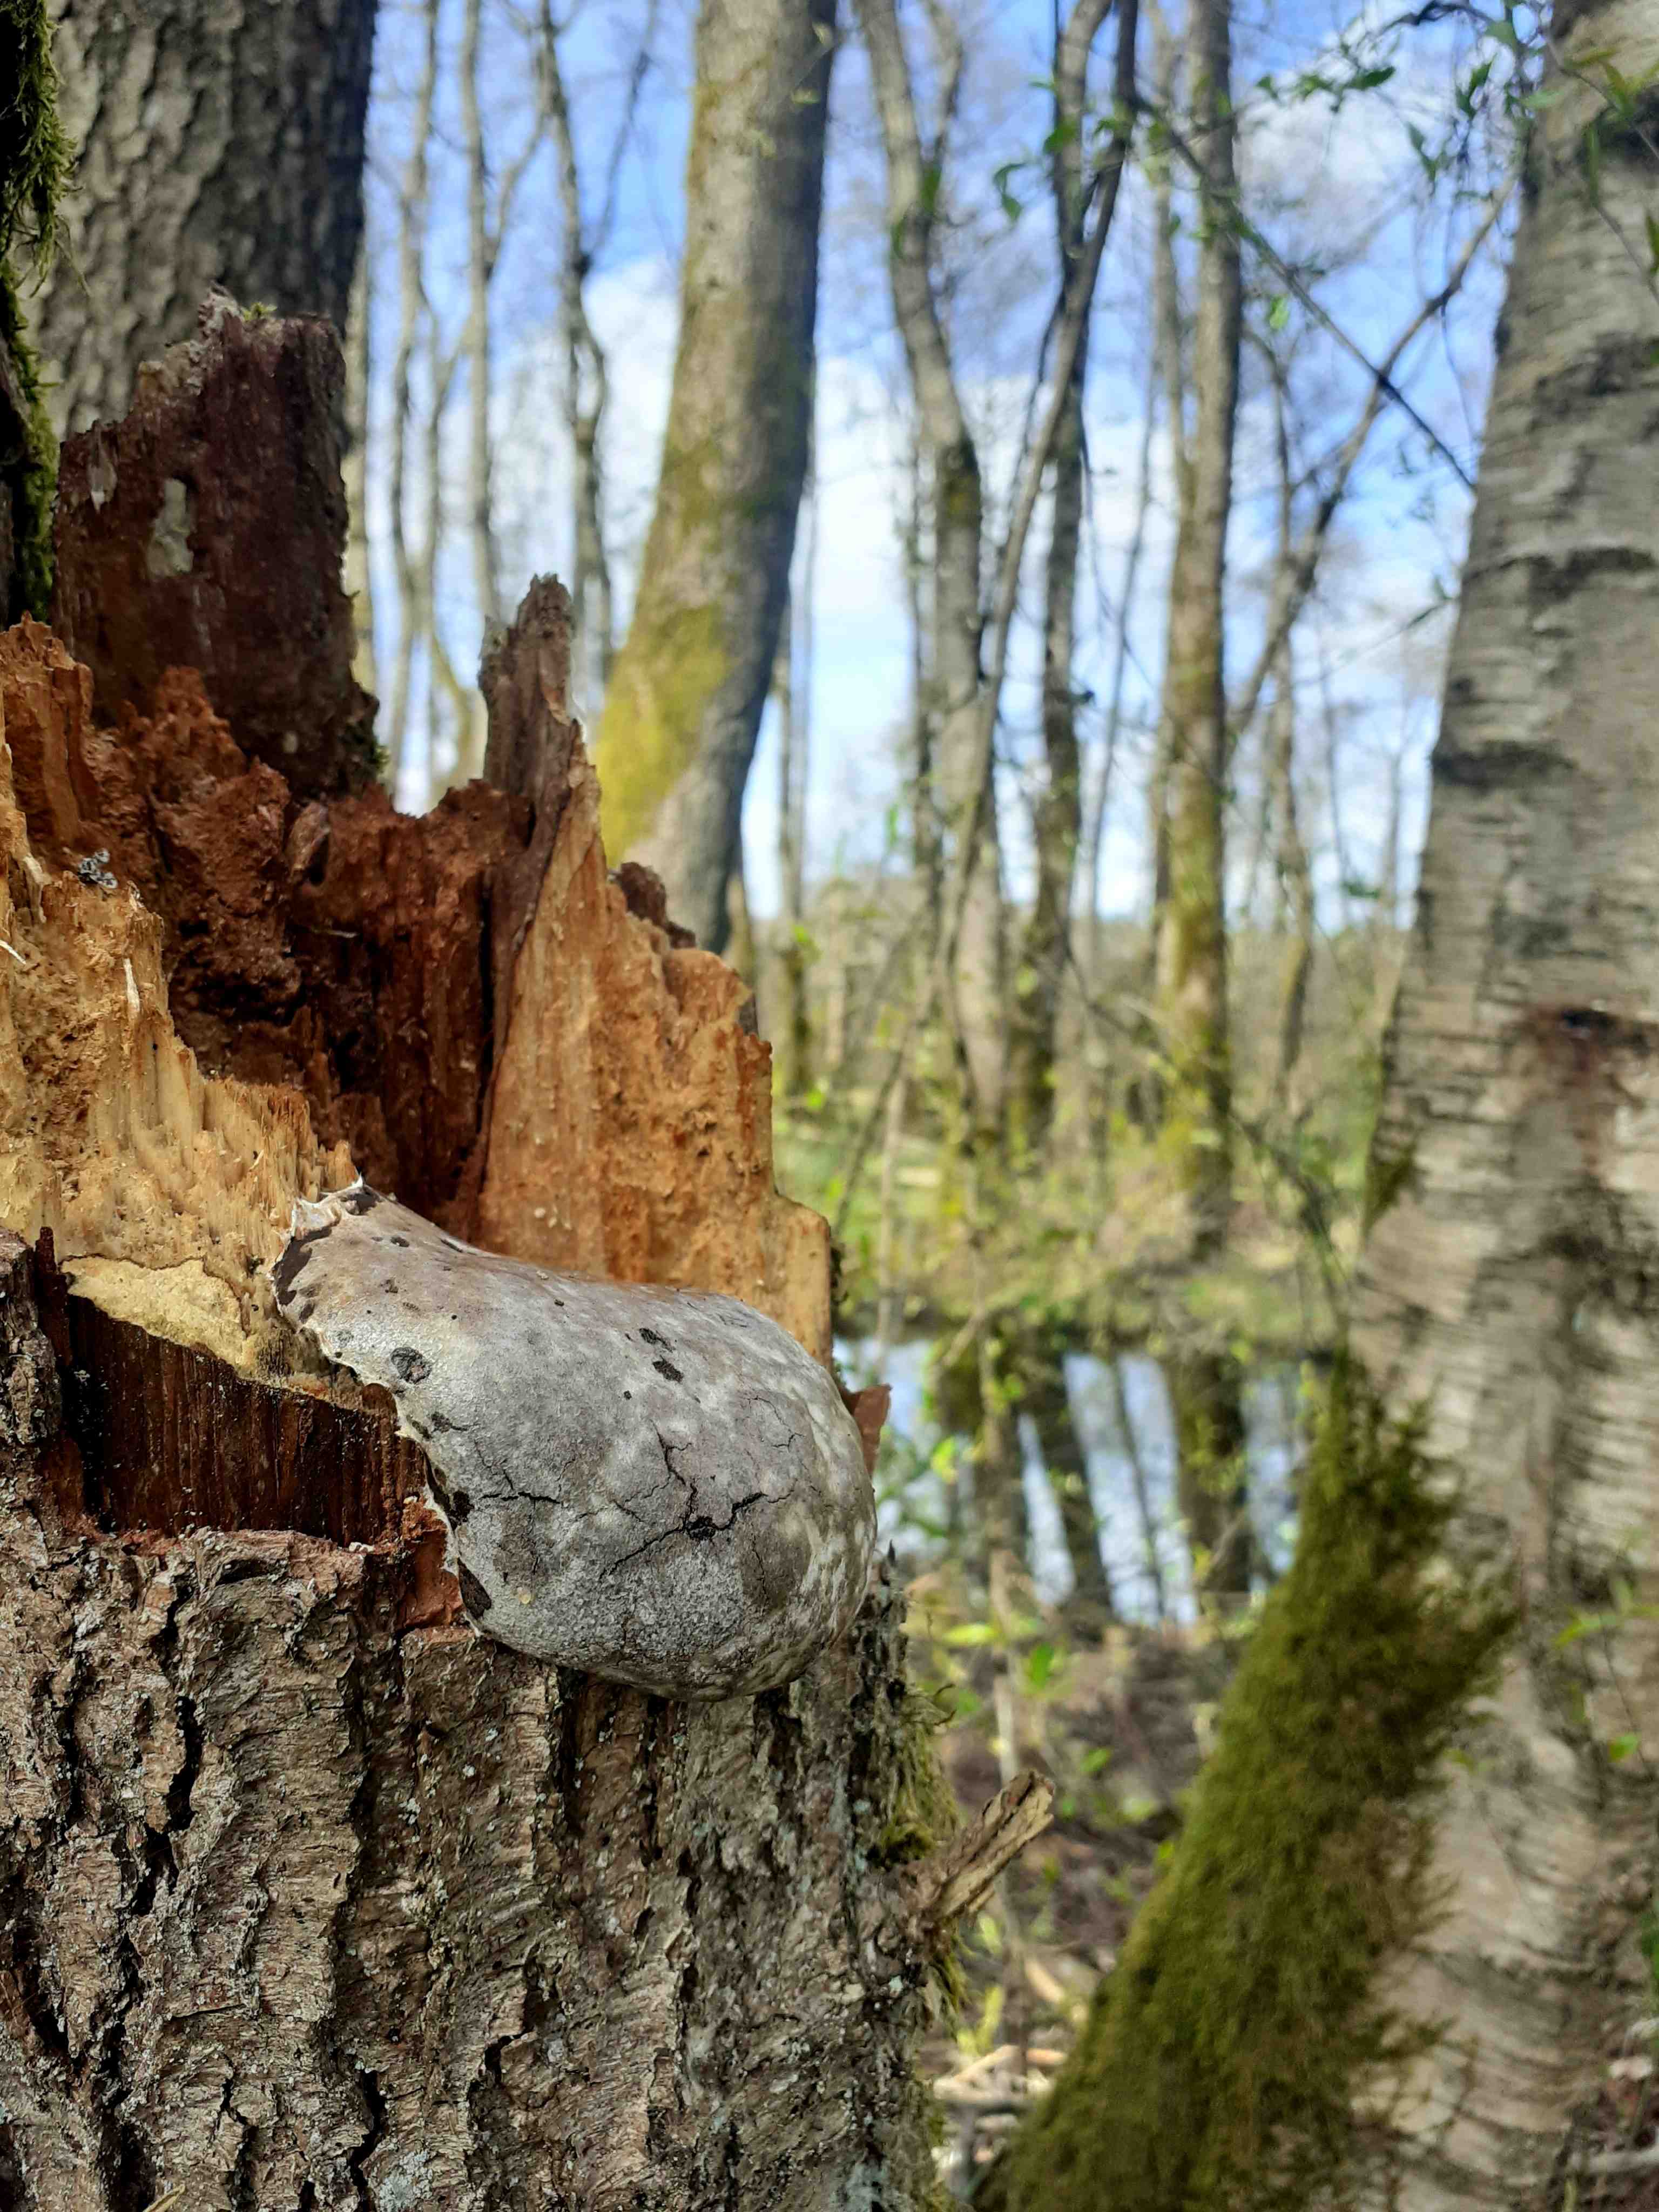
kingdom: Protozoa
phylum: Mycetozoa
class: Myxomycetes
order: Cribrariales
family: Tubiferaceae
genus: Reticularia
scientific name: Reticularia lycoperdon
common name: skinnende støvpude
